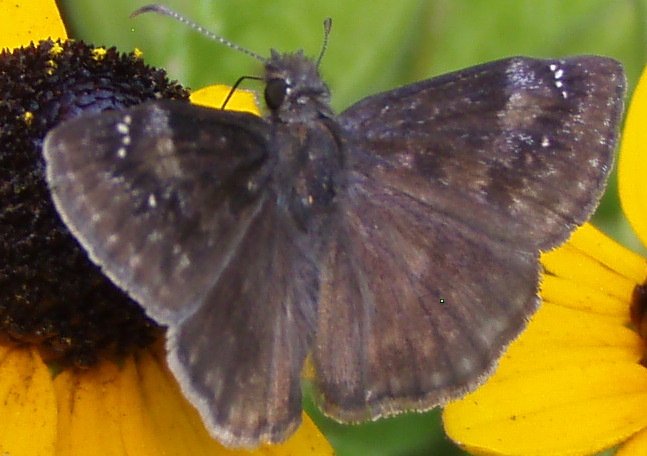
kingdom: Animalia
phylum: Arthropoda
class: Insecta
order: Lepidoptera
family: Hesperiidae
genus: Gesta
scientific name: Gesta
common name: Wild Indigo Duskywing
